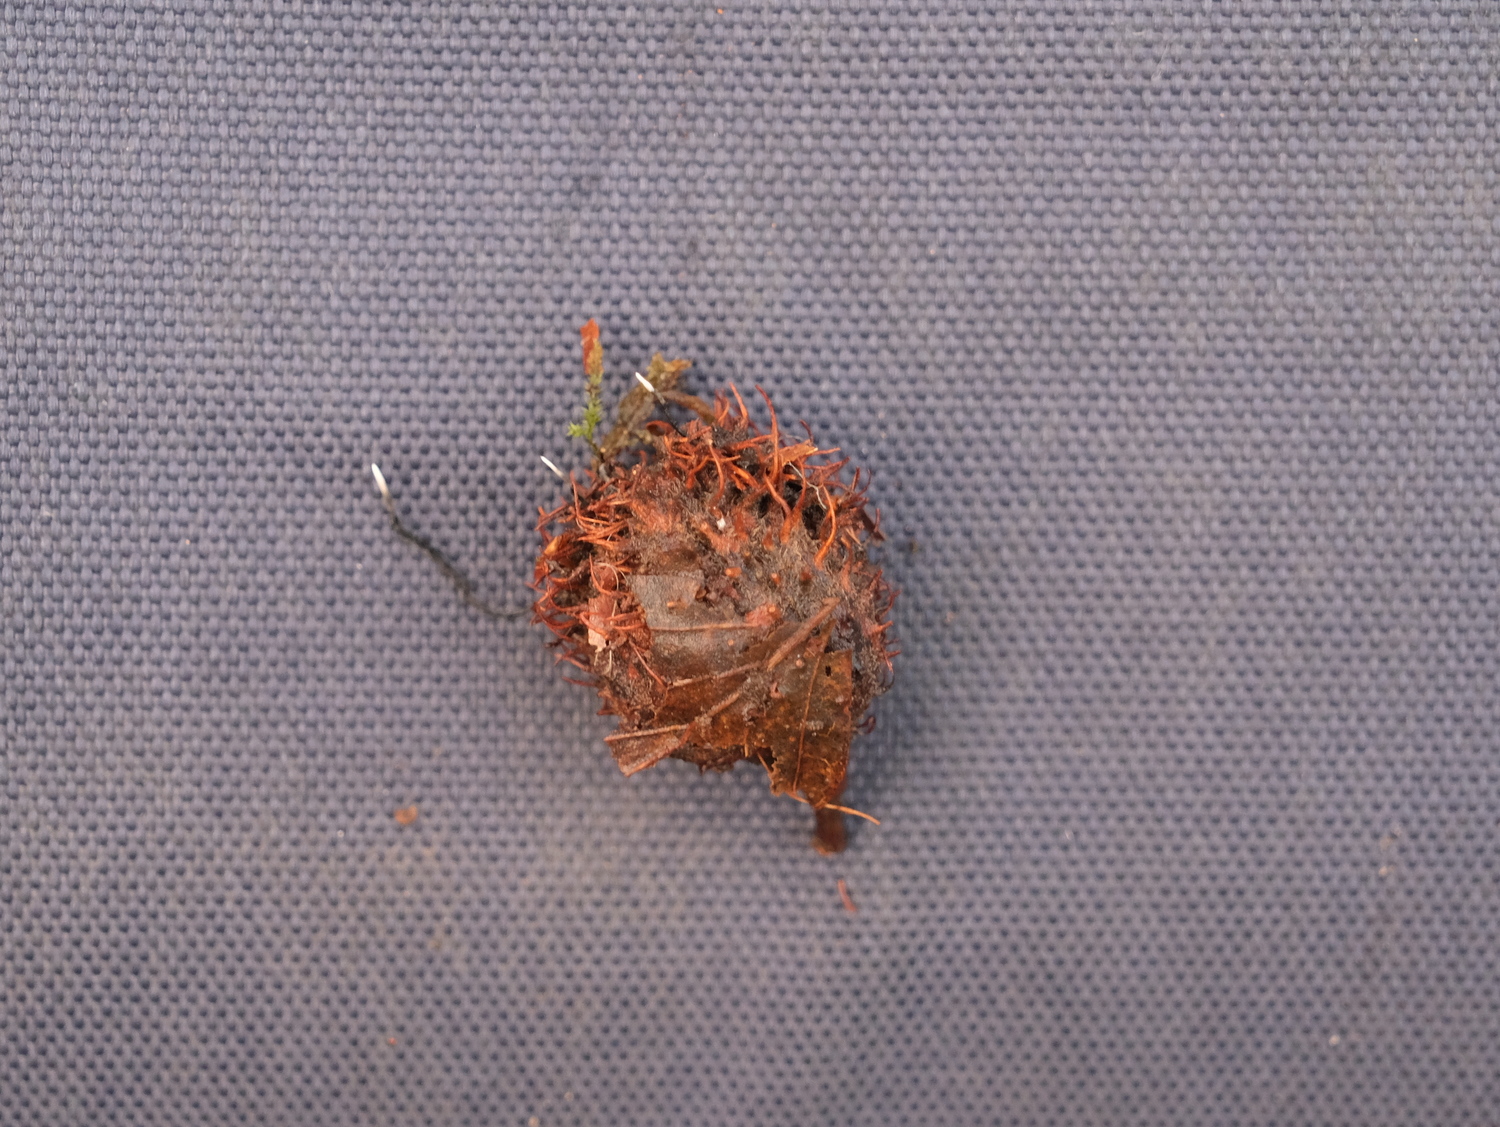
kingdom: Fungi
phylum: Ascomycota
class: Sordariomycetes
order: Xylariales
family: Xylariaceae
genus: Xylaria
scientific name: Xylaria carpophila
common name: bogskål-stødsvamp
